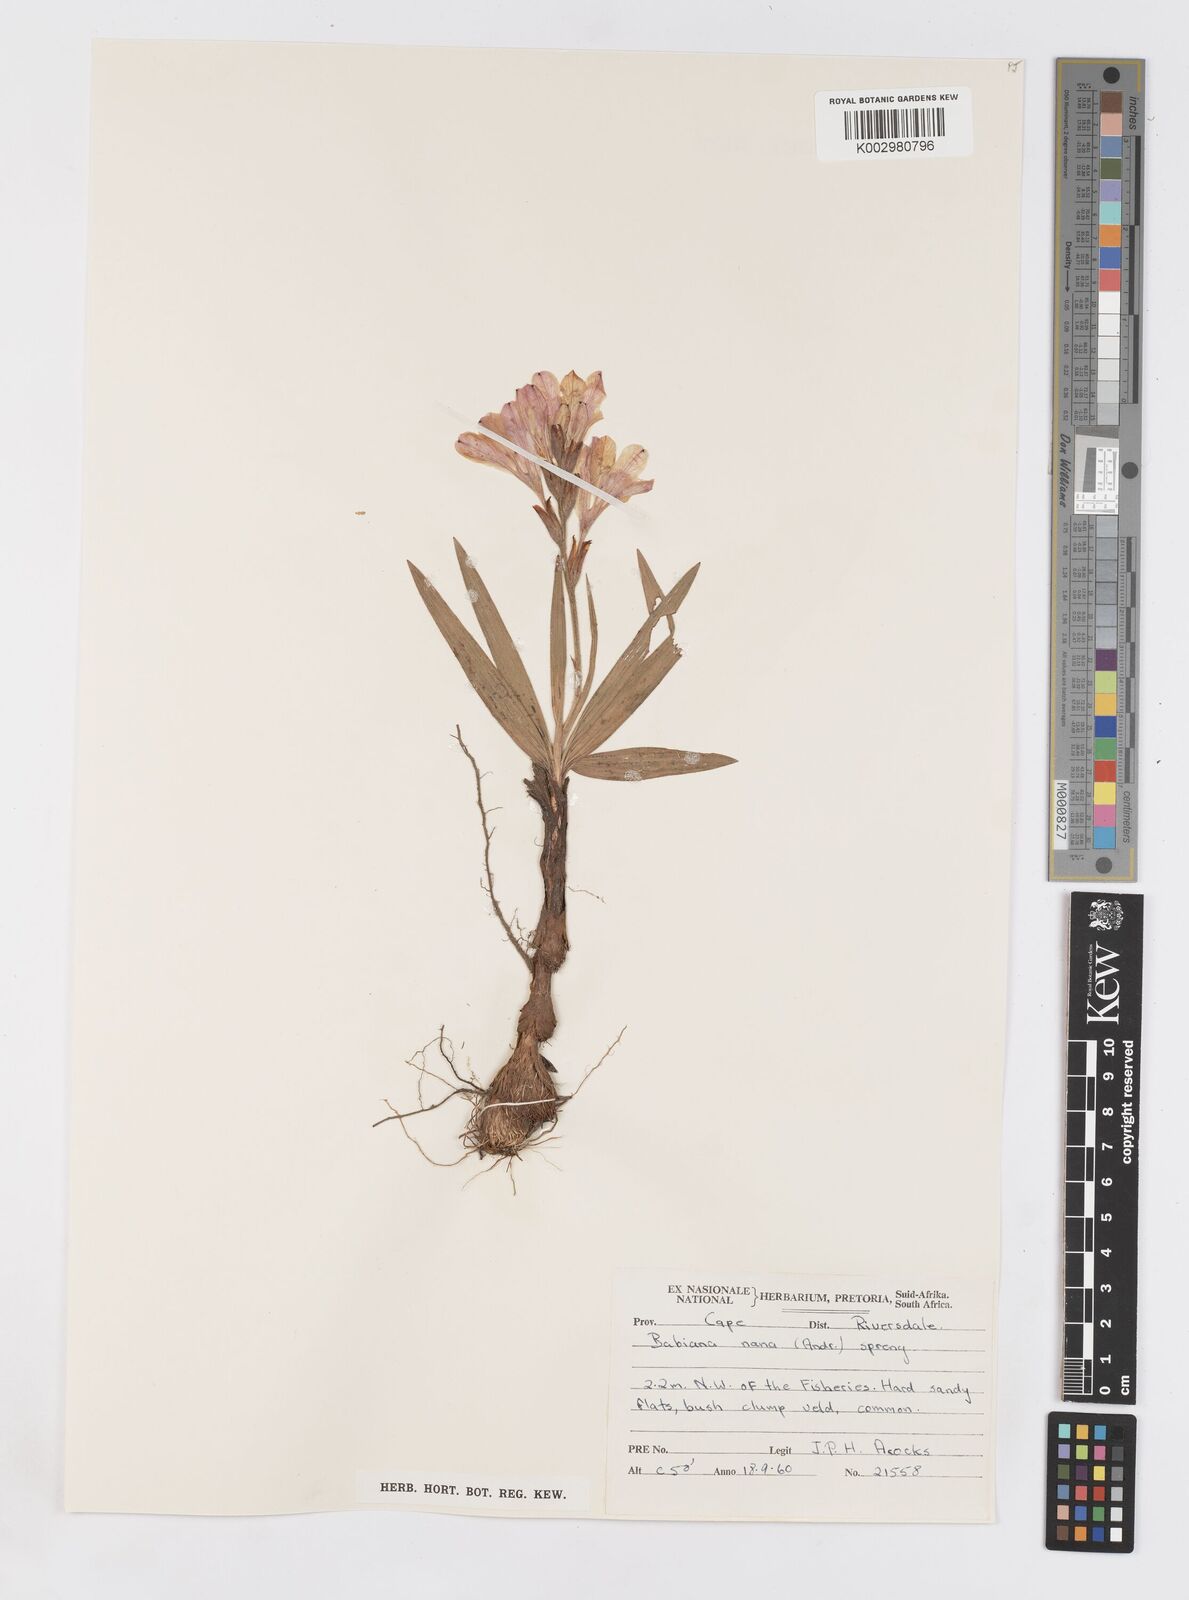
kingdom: Plantae
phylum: Tracheophyta
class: Liliopsida
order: Asparagales
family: Iridaceae
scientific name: Iridaceae
